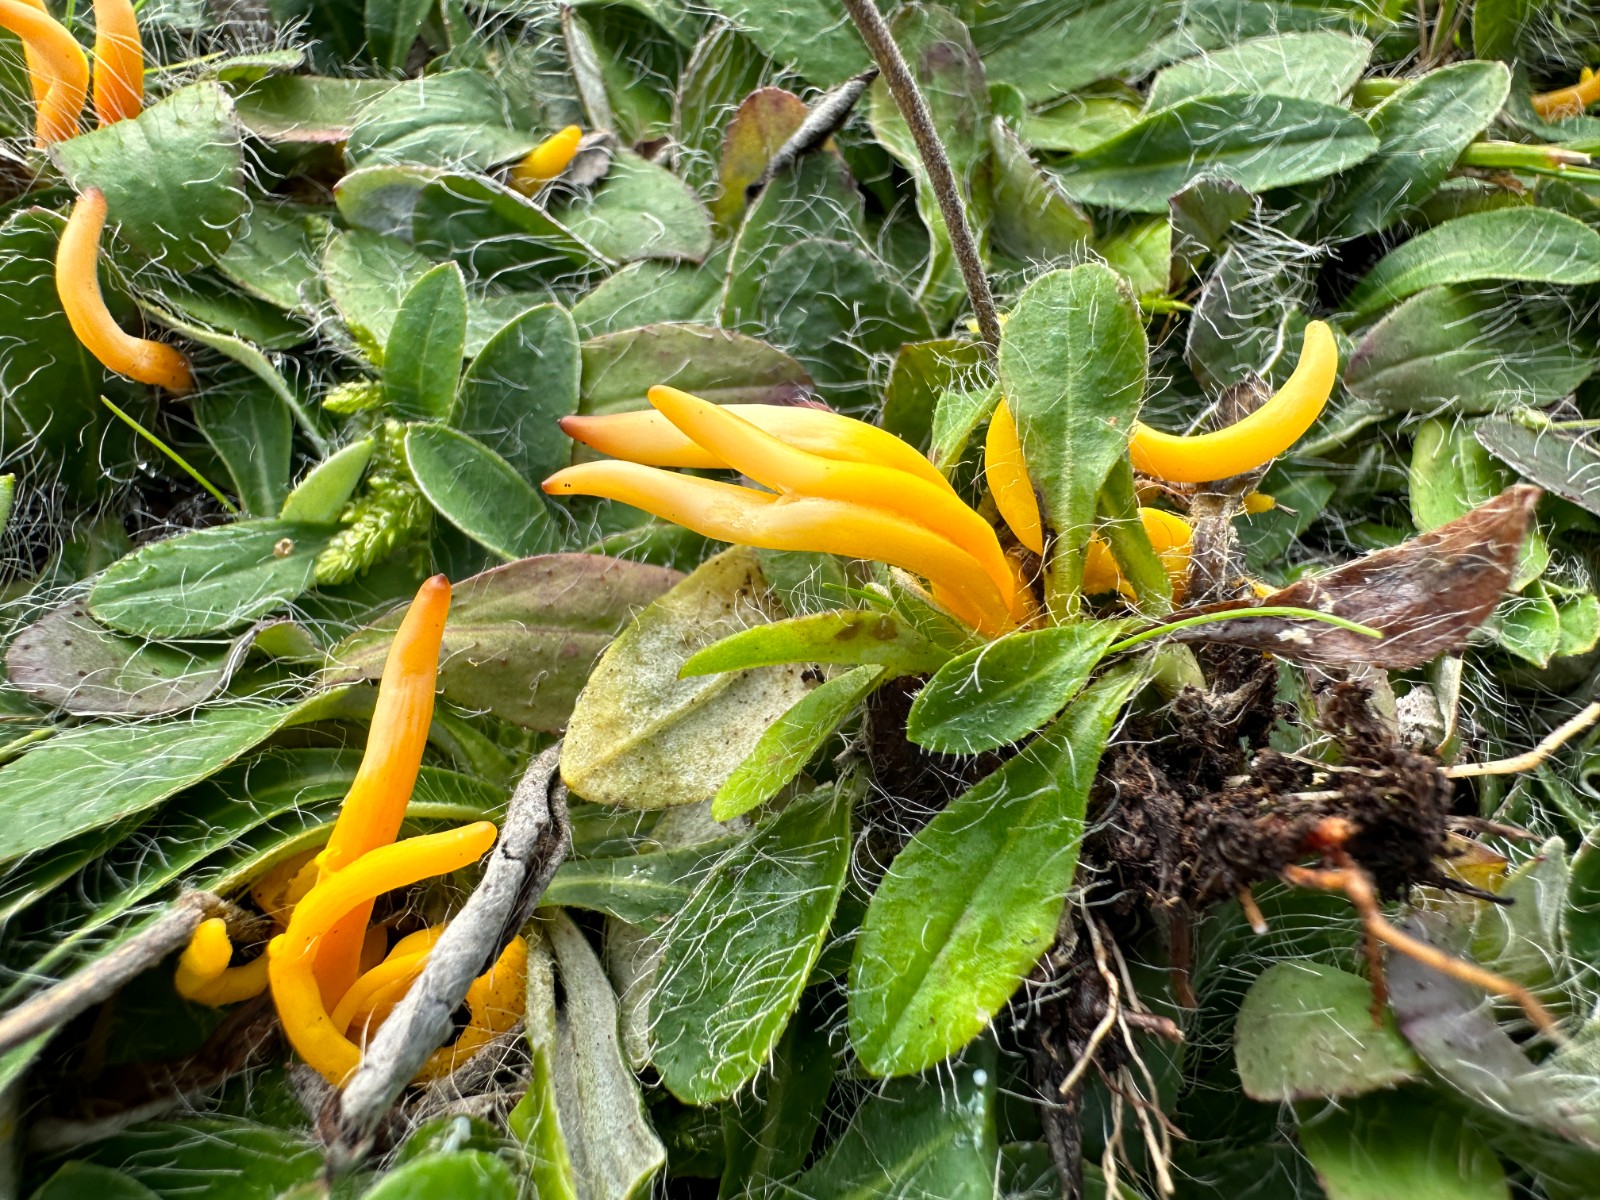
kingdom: Fungi
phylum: Basidiomycota
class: Agaricomycetes
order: Agaricales
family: Clavariaceae
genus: Clavulinopsis
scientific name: Clavulinopsis helvola
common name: orangegul køllesvamp
